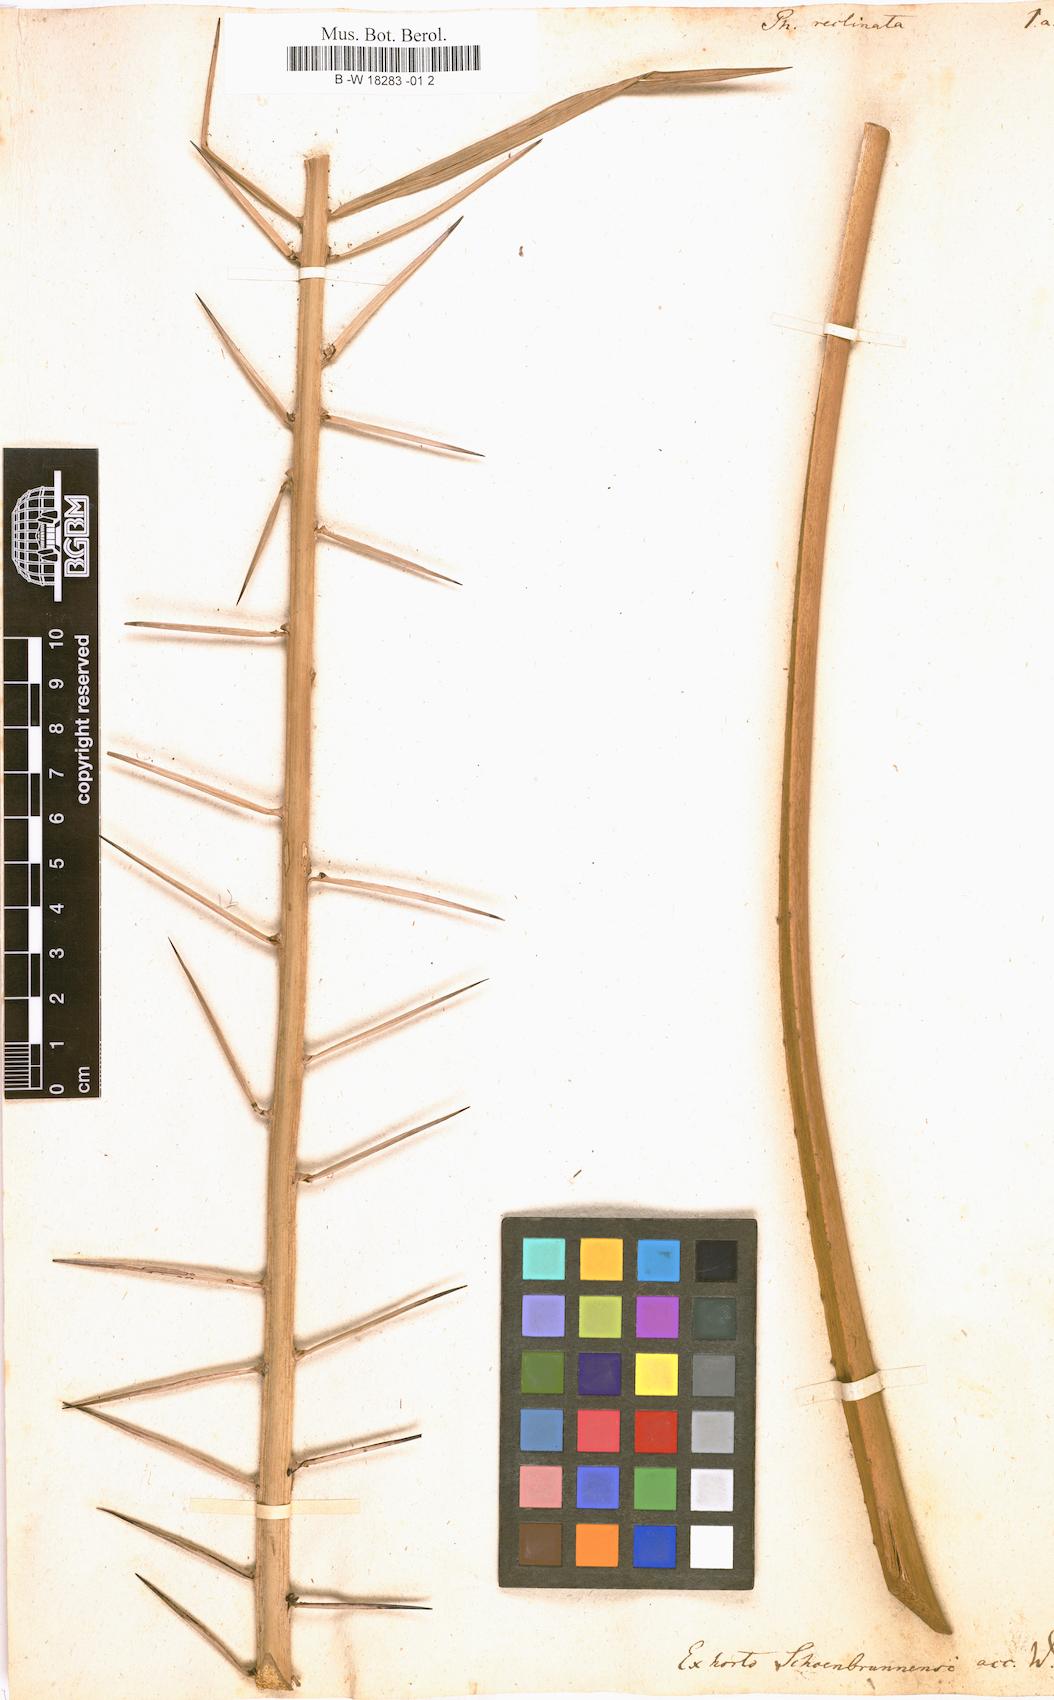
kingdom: Plantae
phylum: Tracheophyta
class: Liliopsida
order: Arecales
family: Arecaceae
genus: Phoenix
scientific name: Phoenix reclinata
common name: Senegal date palm
